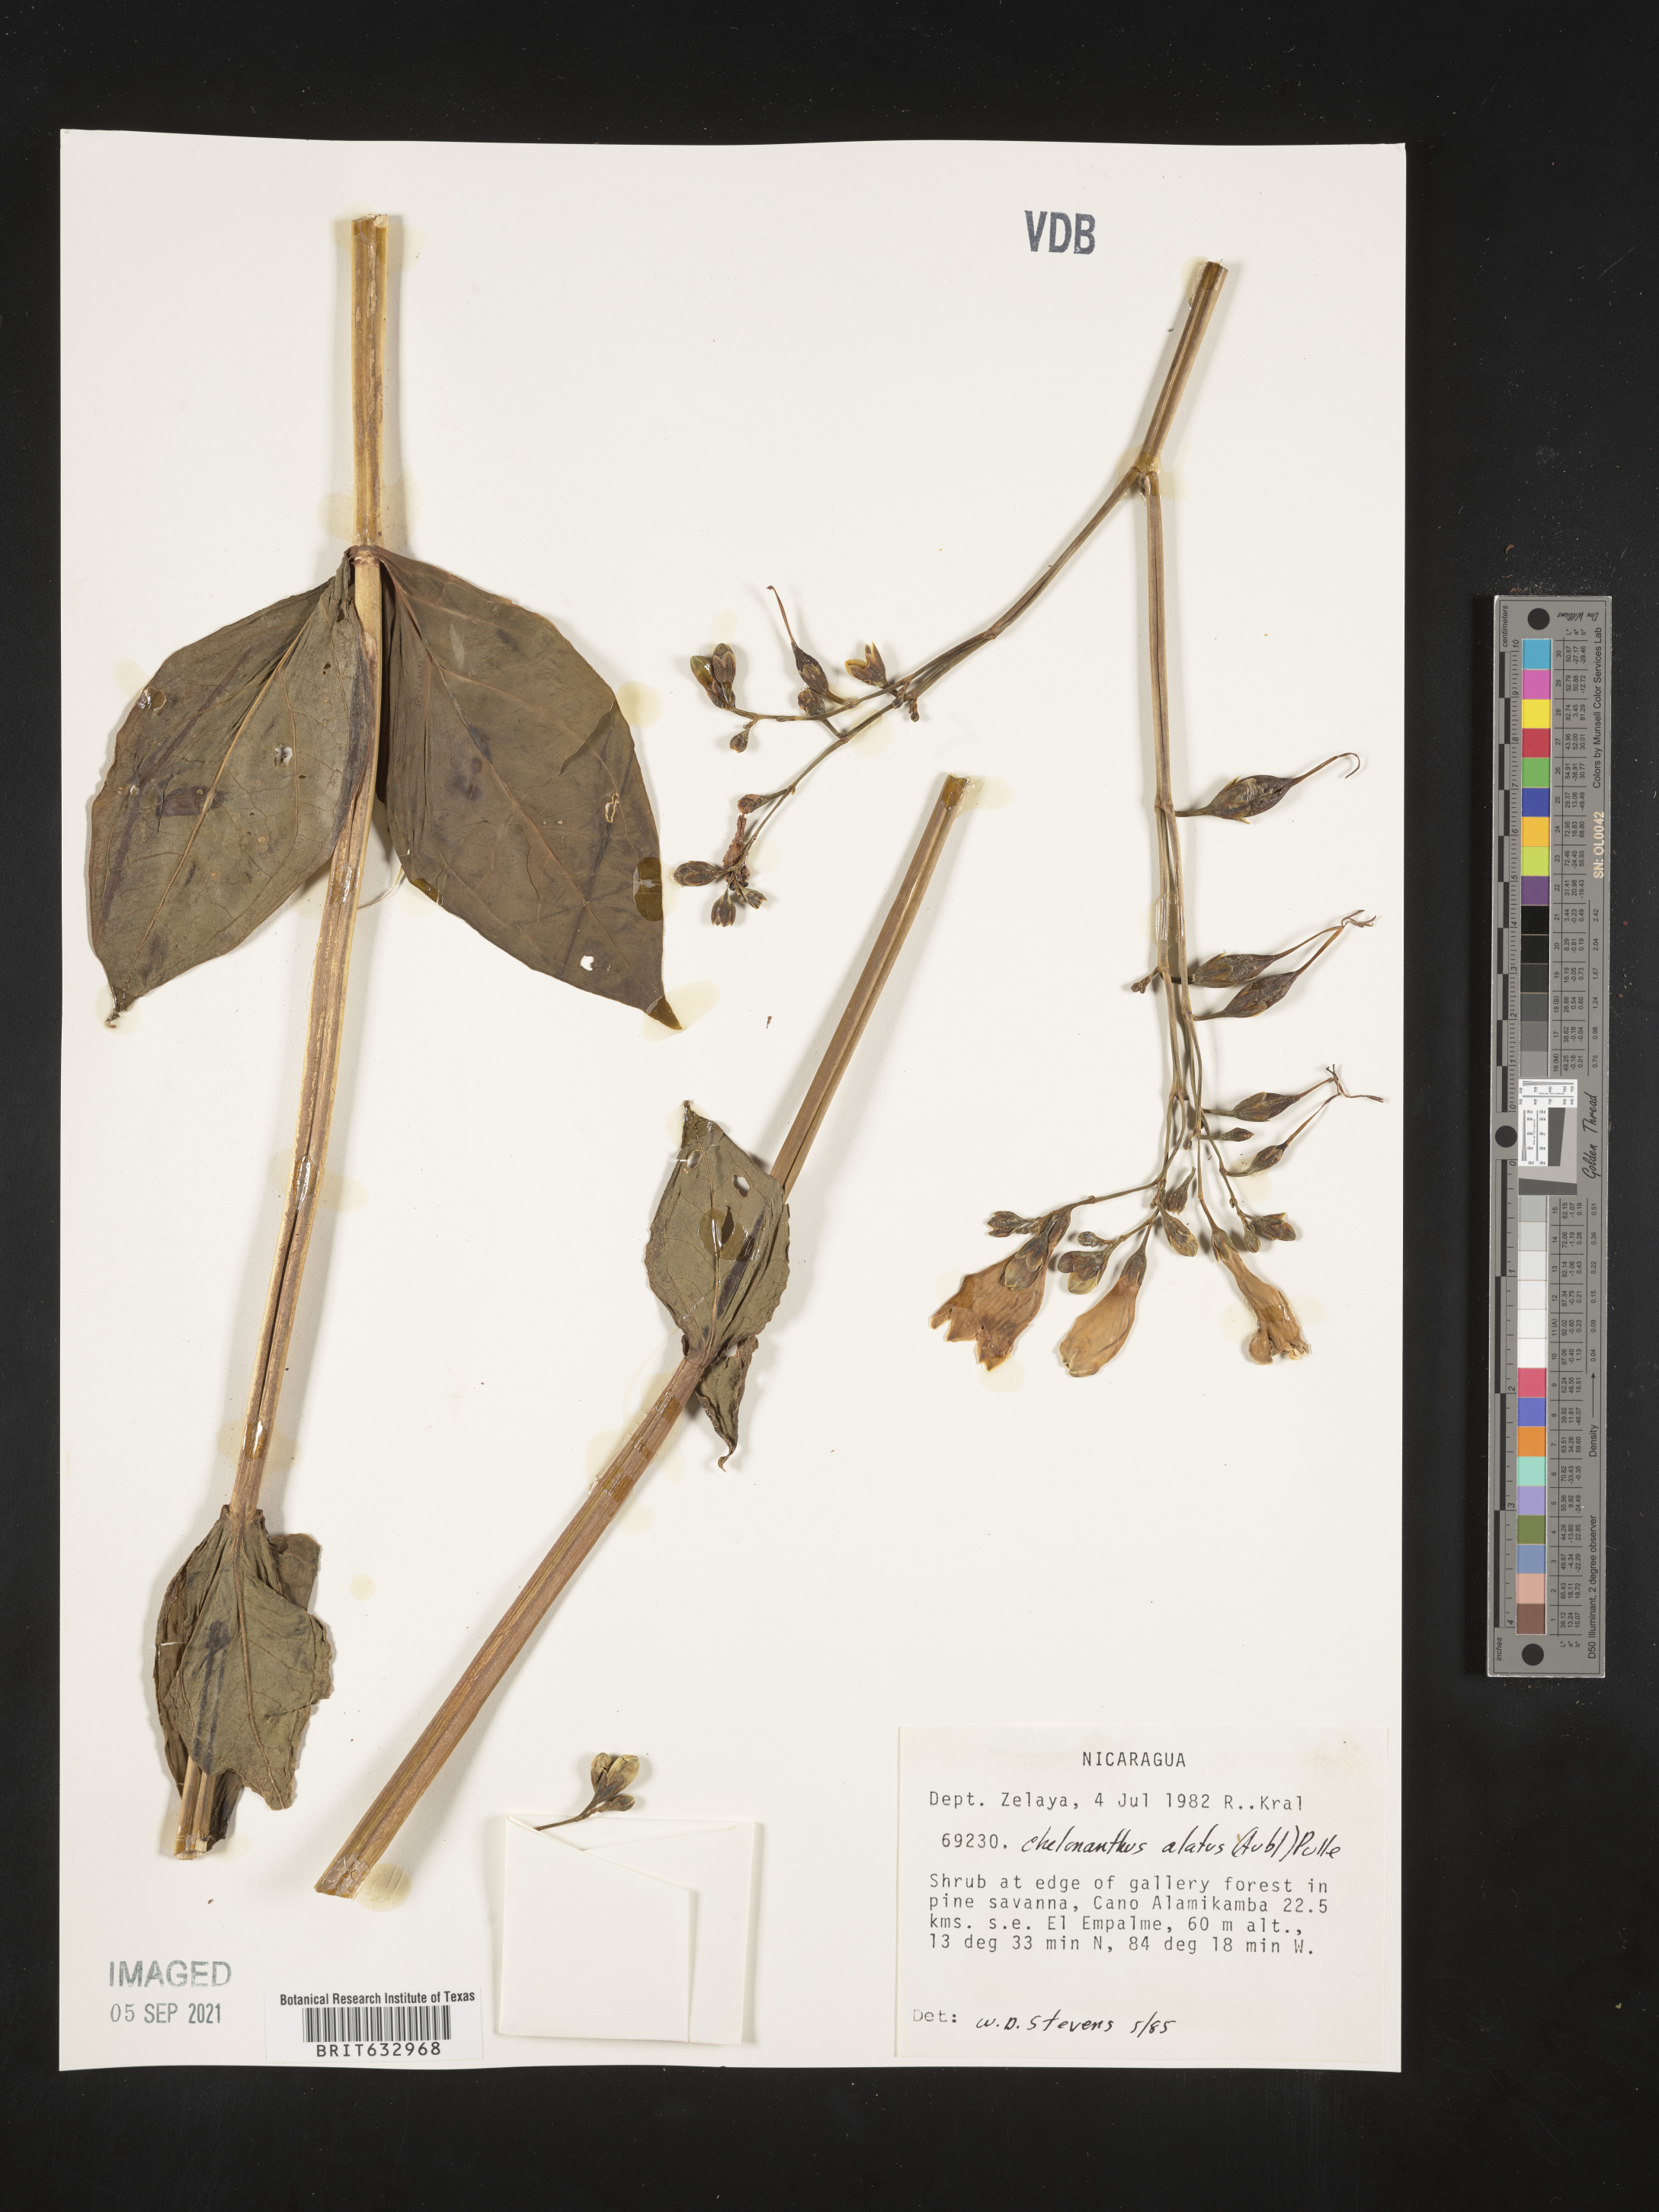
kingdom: Plantae
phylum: Tracheophyta
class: Magnoliopsida
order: Gentianales
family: Gentianaceae
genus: Chelonanthus
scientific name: Chelonanthus
